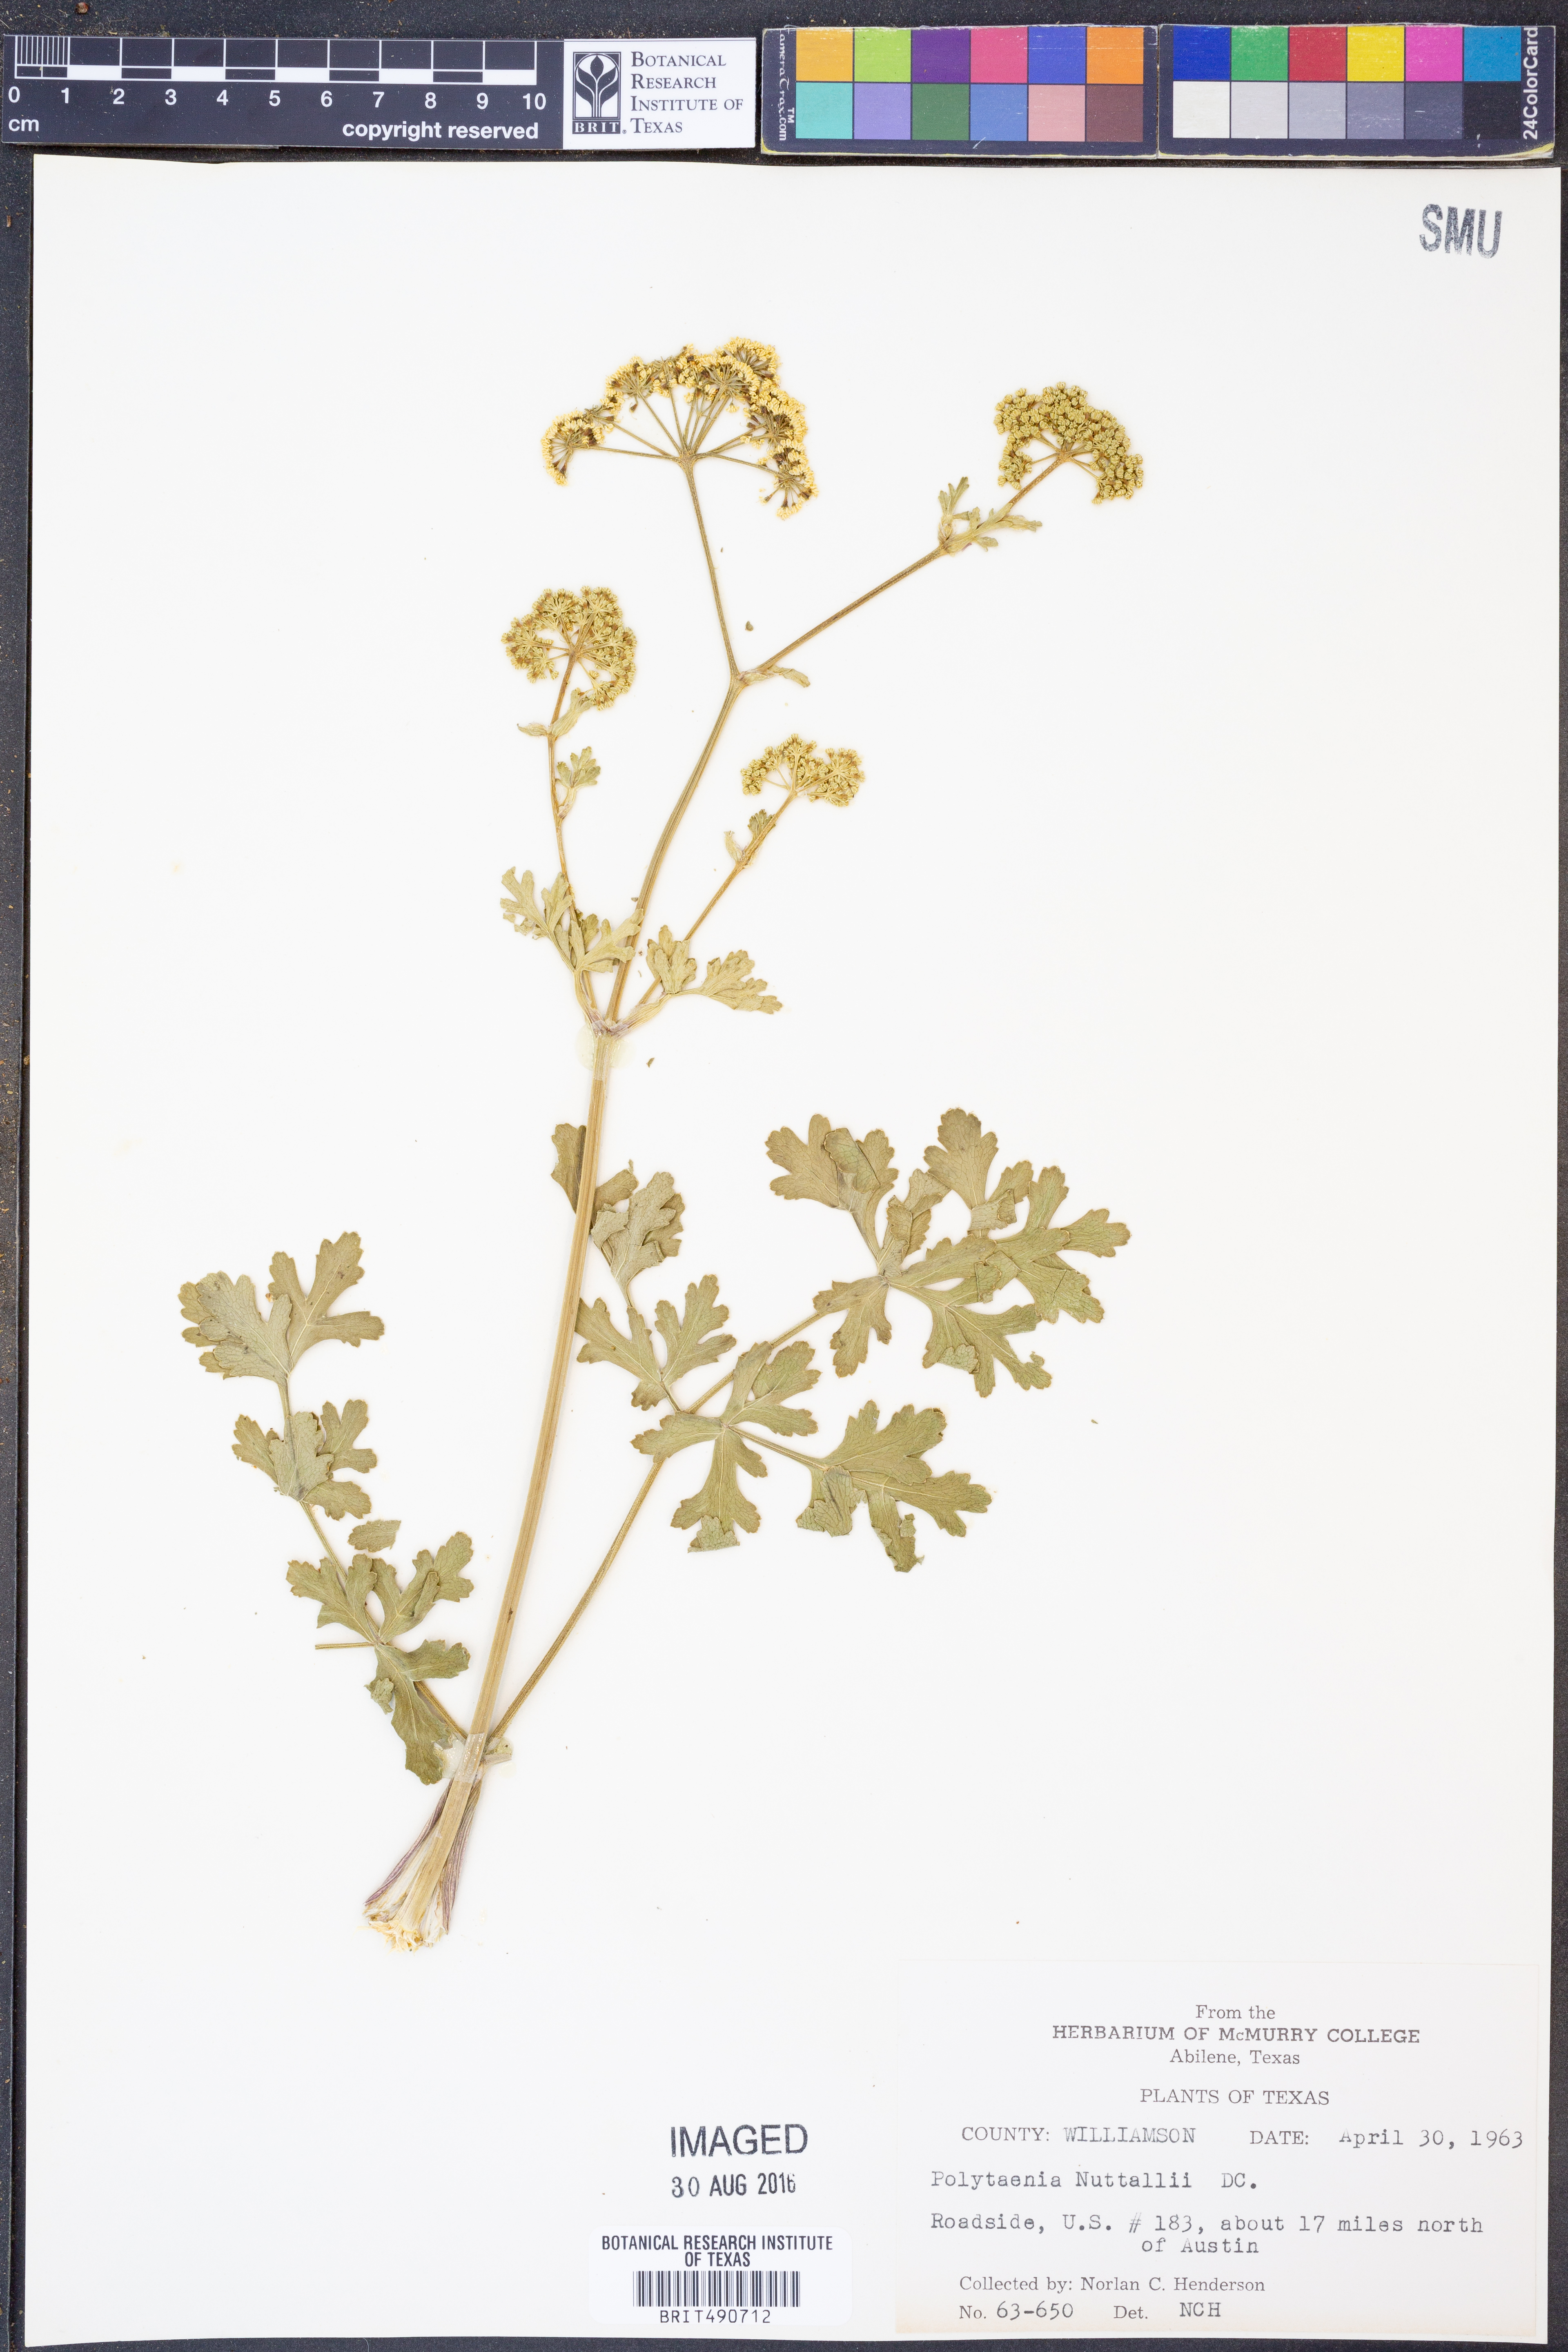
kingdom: Plantae
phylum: Tracheophyta
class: Magnoliopsida
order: Apiales
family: Apiaceae
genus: Polytaenia
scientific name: Polytaenia nuttallii
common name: Prairie-parsley
